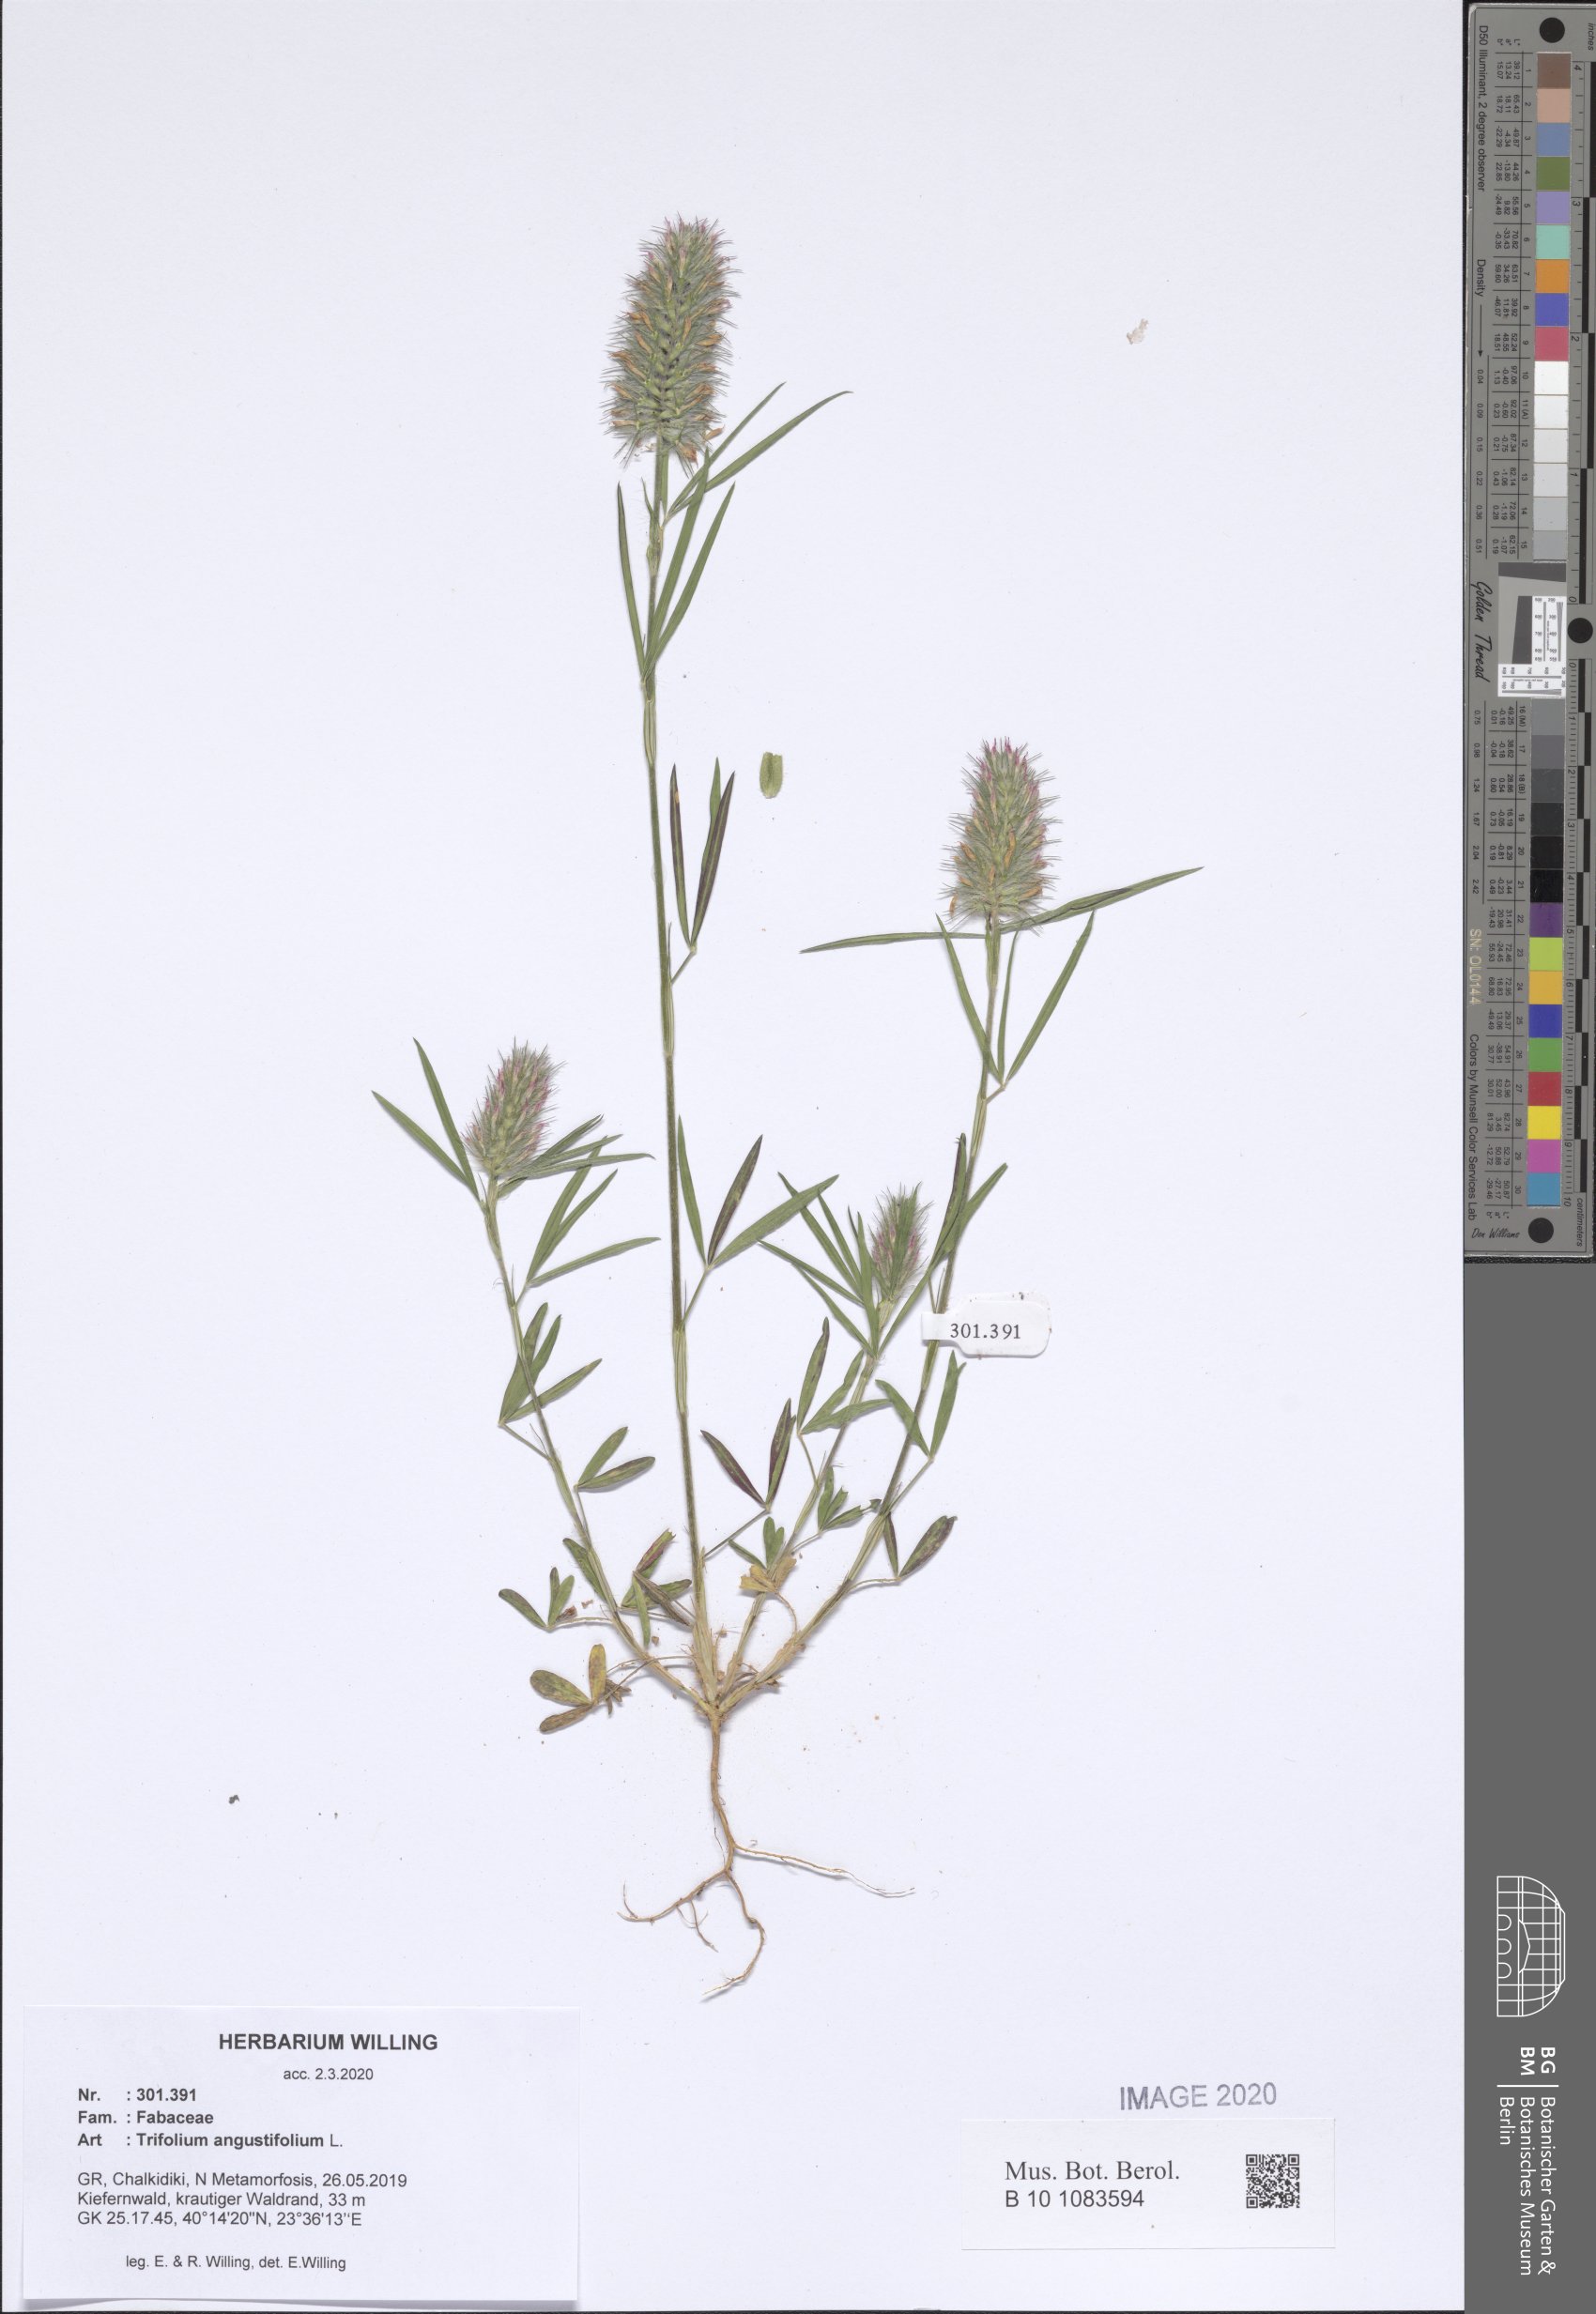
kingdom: Plantae
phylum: Tracheophyta
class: Magnoliopsida
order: Fabales
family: Fabaceae
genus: Trifolium
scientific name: Trifolium angustifolium
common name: Narrow clover
